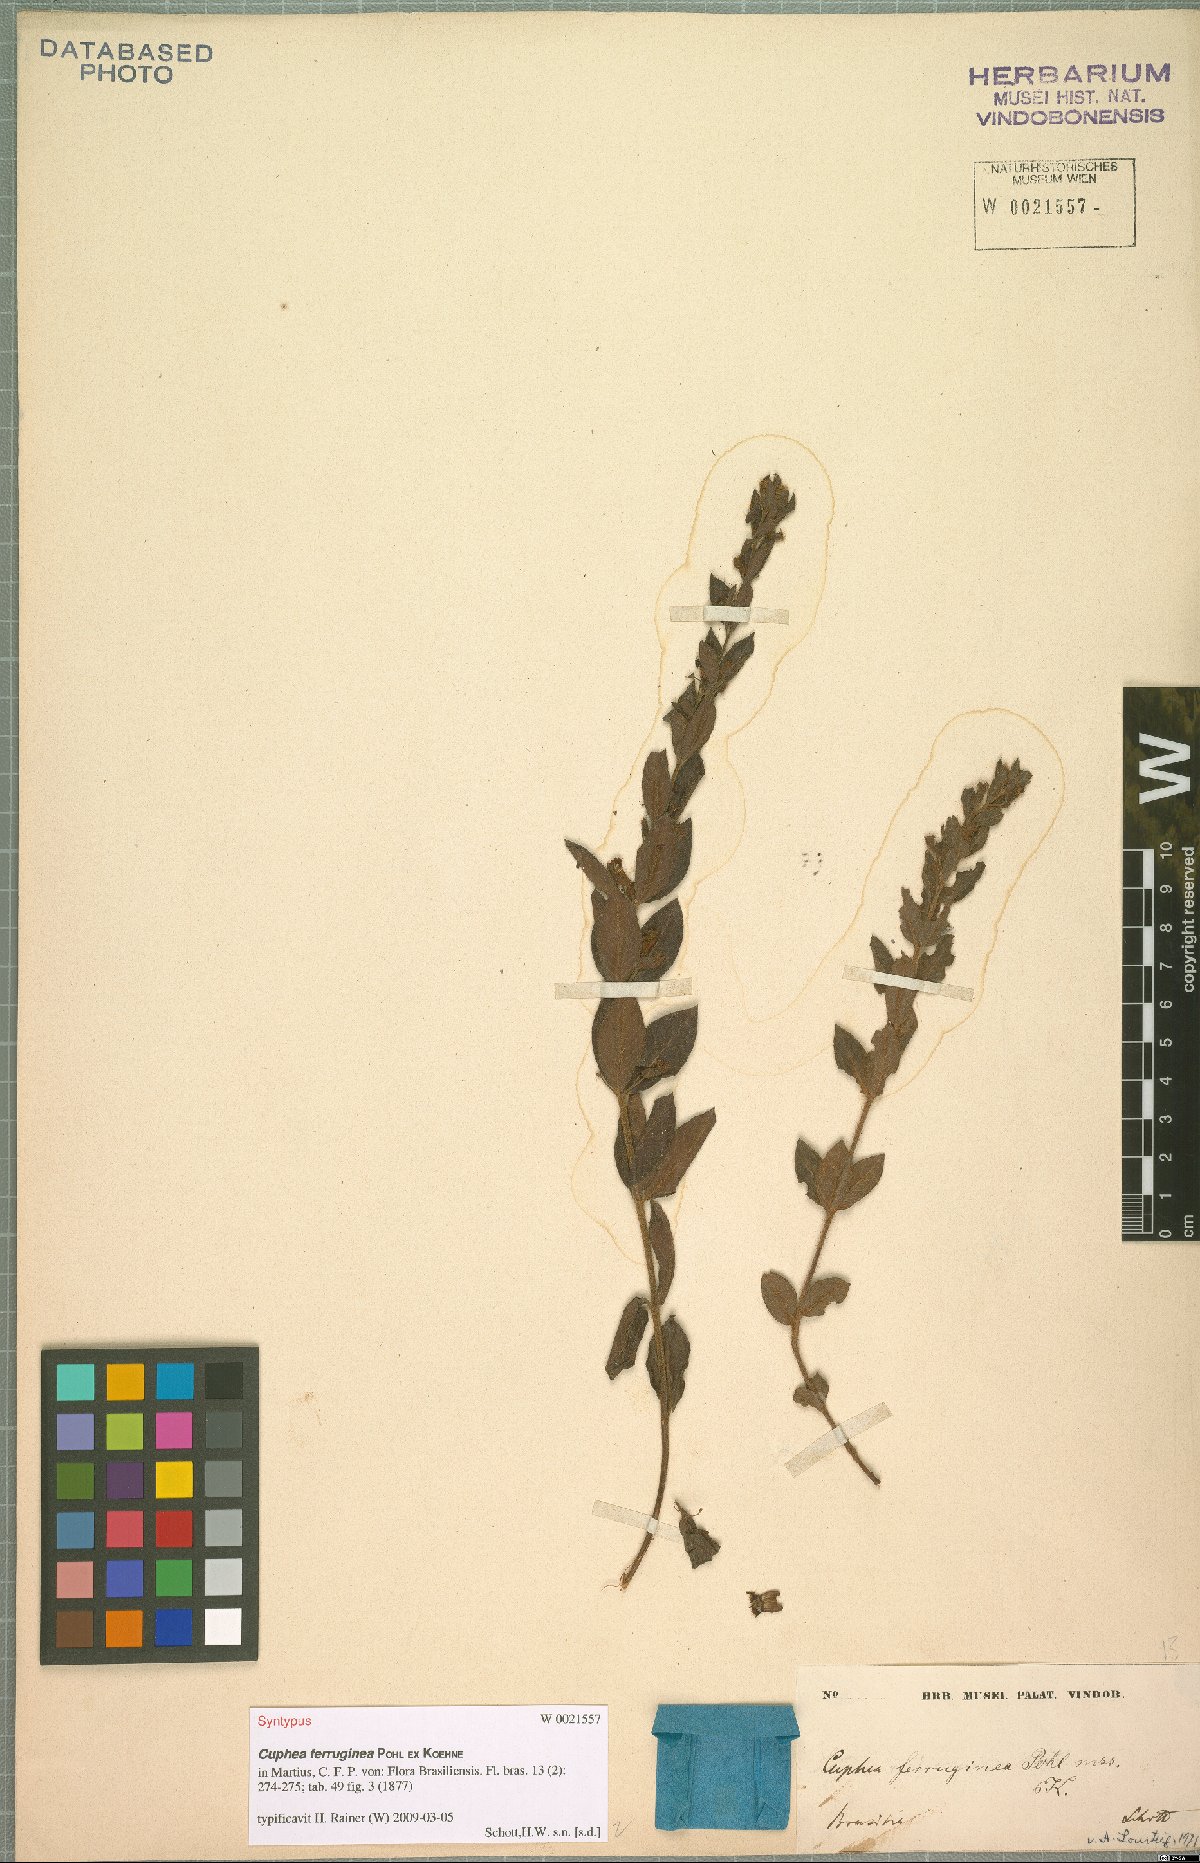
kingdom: Plantae
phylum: Tracheophyta
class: Magnoliopsida
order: Myrtales
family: Lythraceae
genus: Cuphea
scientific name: Cuphea ferruginea
